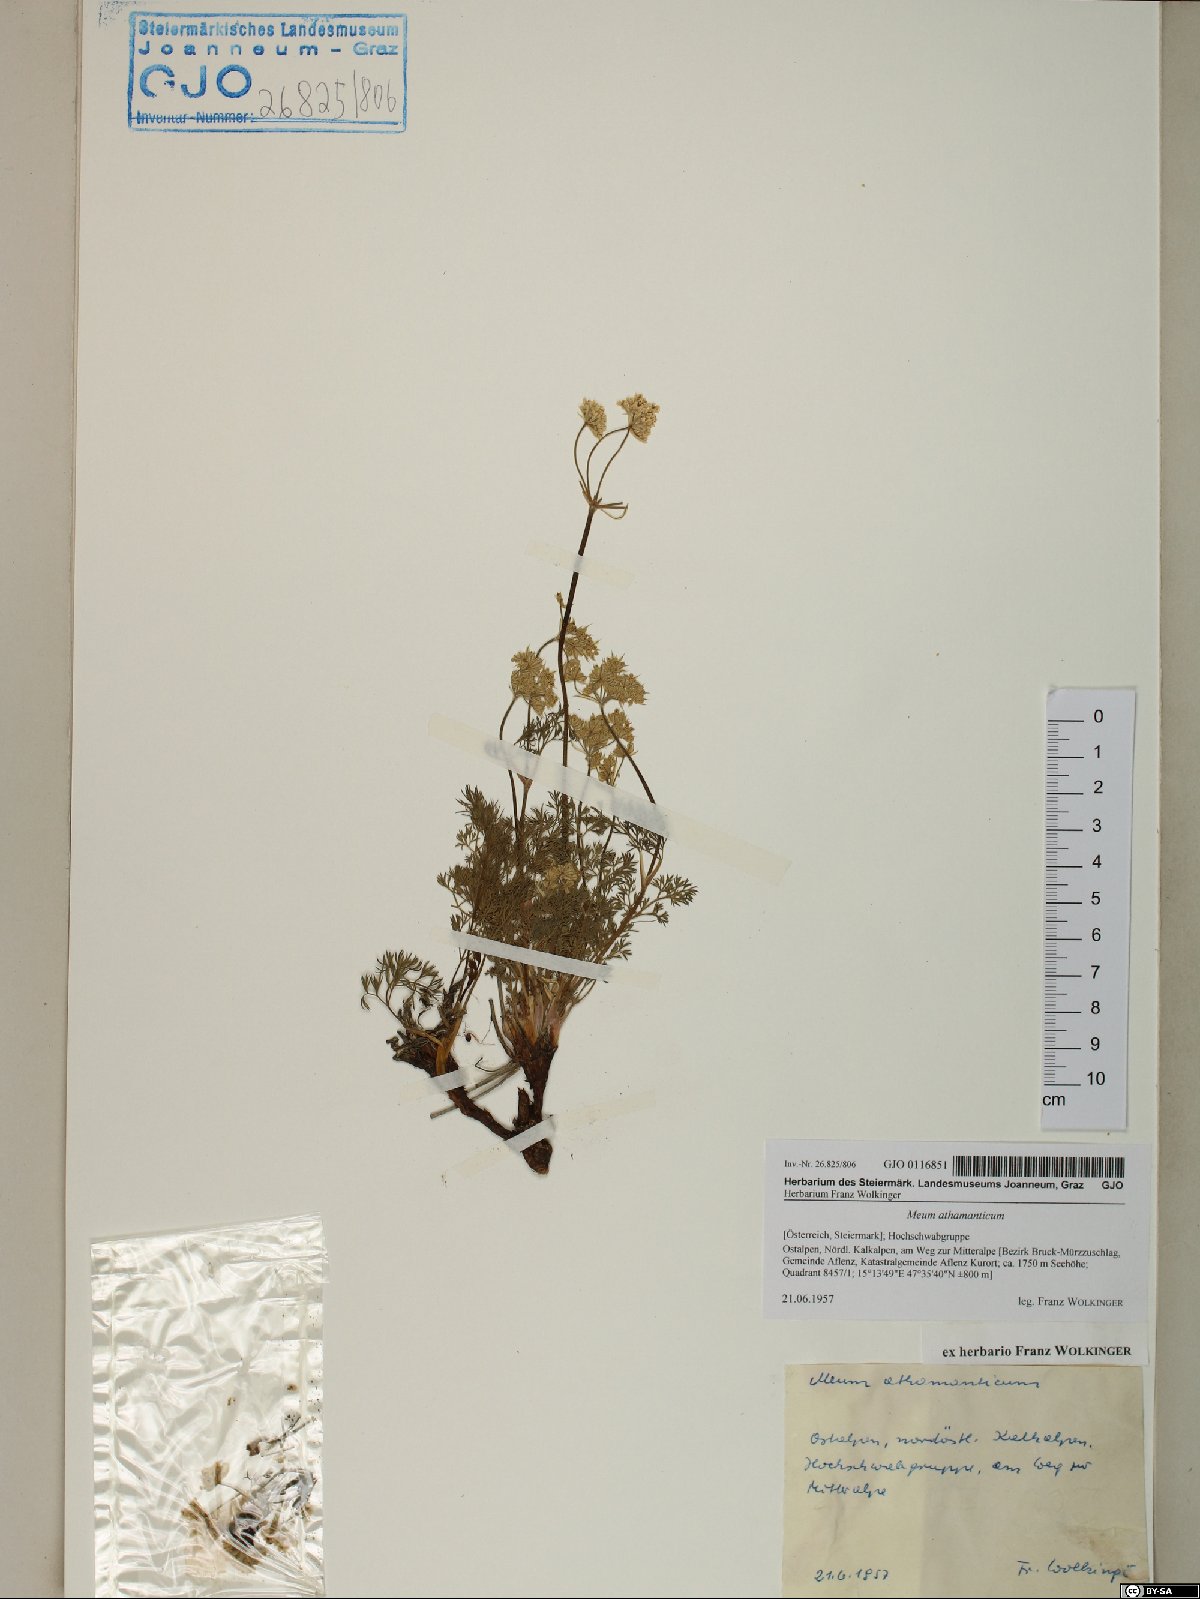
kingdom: Plantae
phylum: Tracheophyta
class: Magnoliopsida
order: Apiales
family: Apiaceae
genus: Meum
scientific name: Meum athamanticum
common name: Spignel
